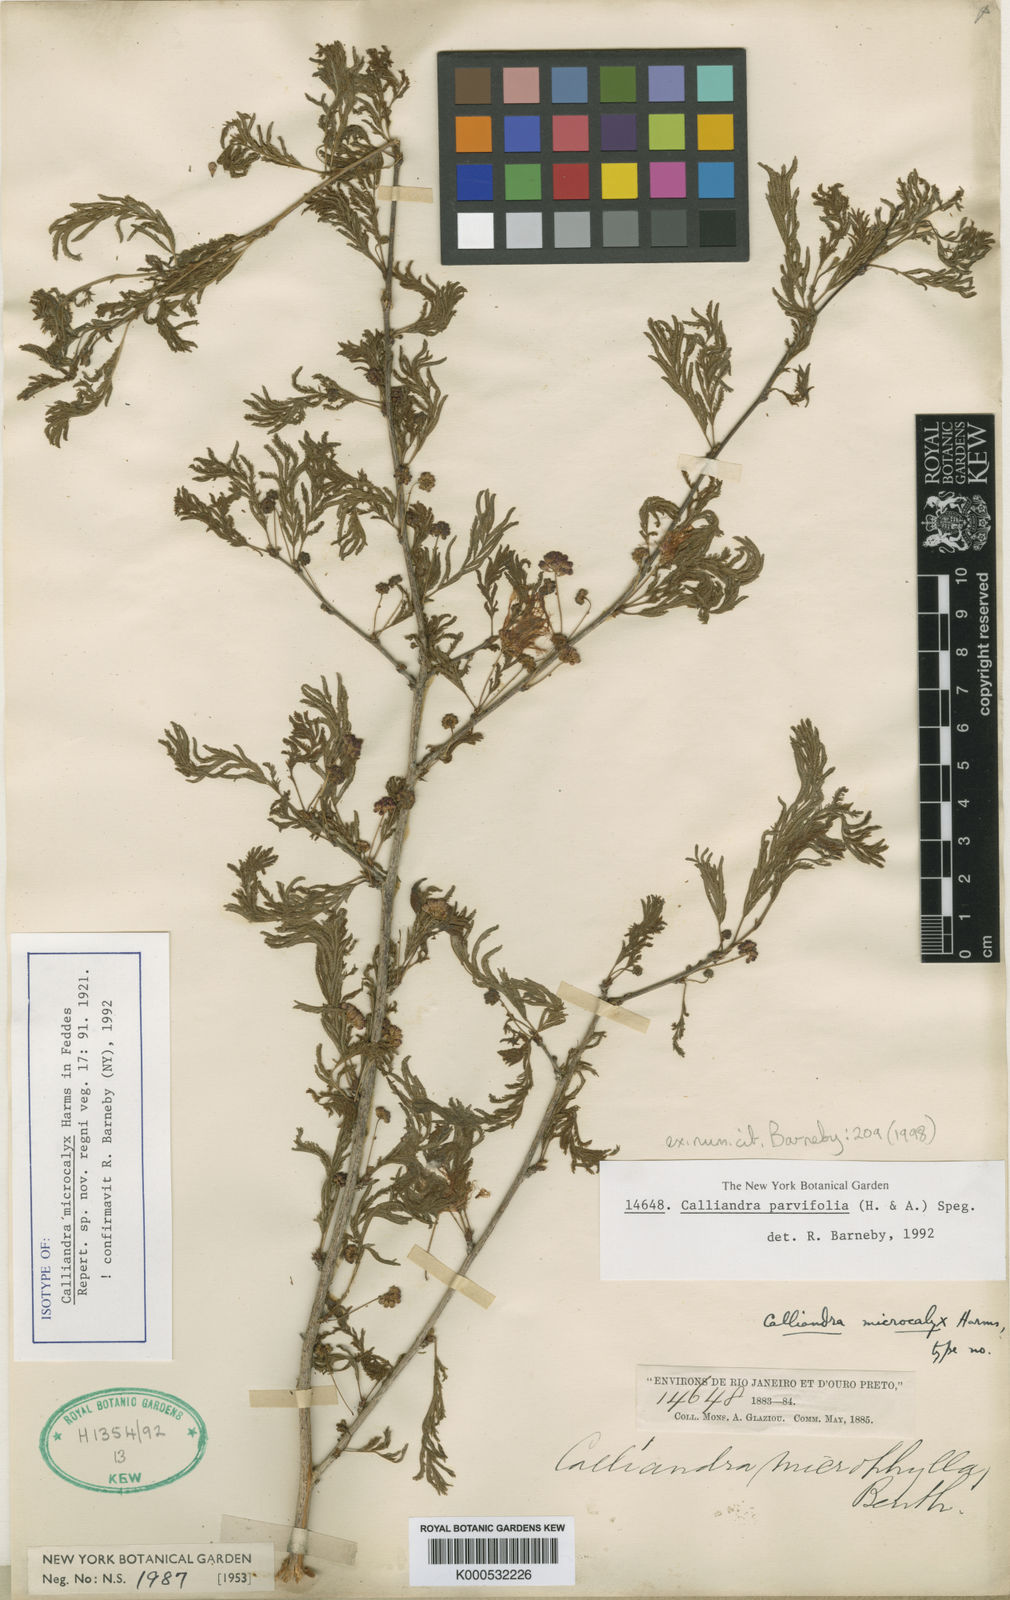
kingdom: Plantae
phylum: Tracheophyta
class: Magnoliopsida
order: Fabales
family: Fabaceae
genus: Calliandra
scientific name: Calliandra parvifolia
